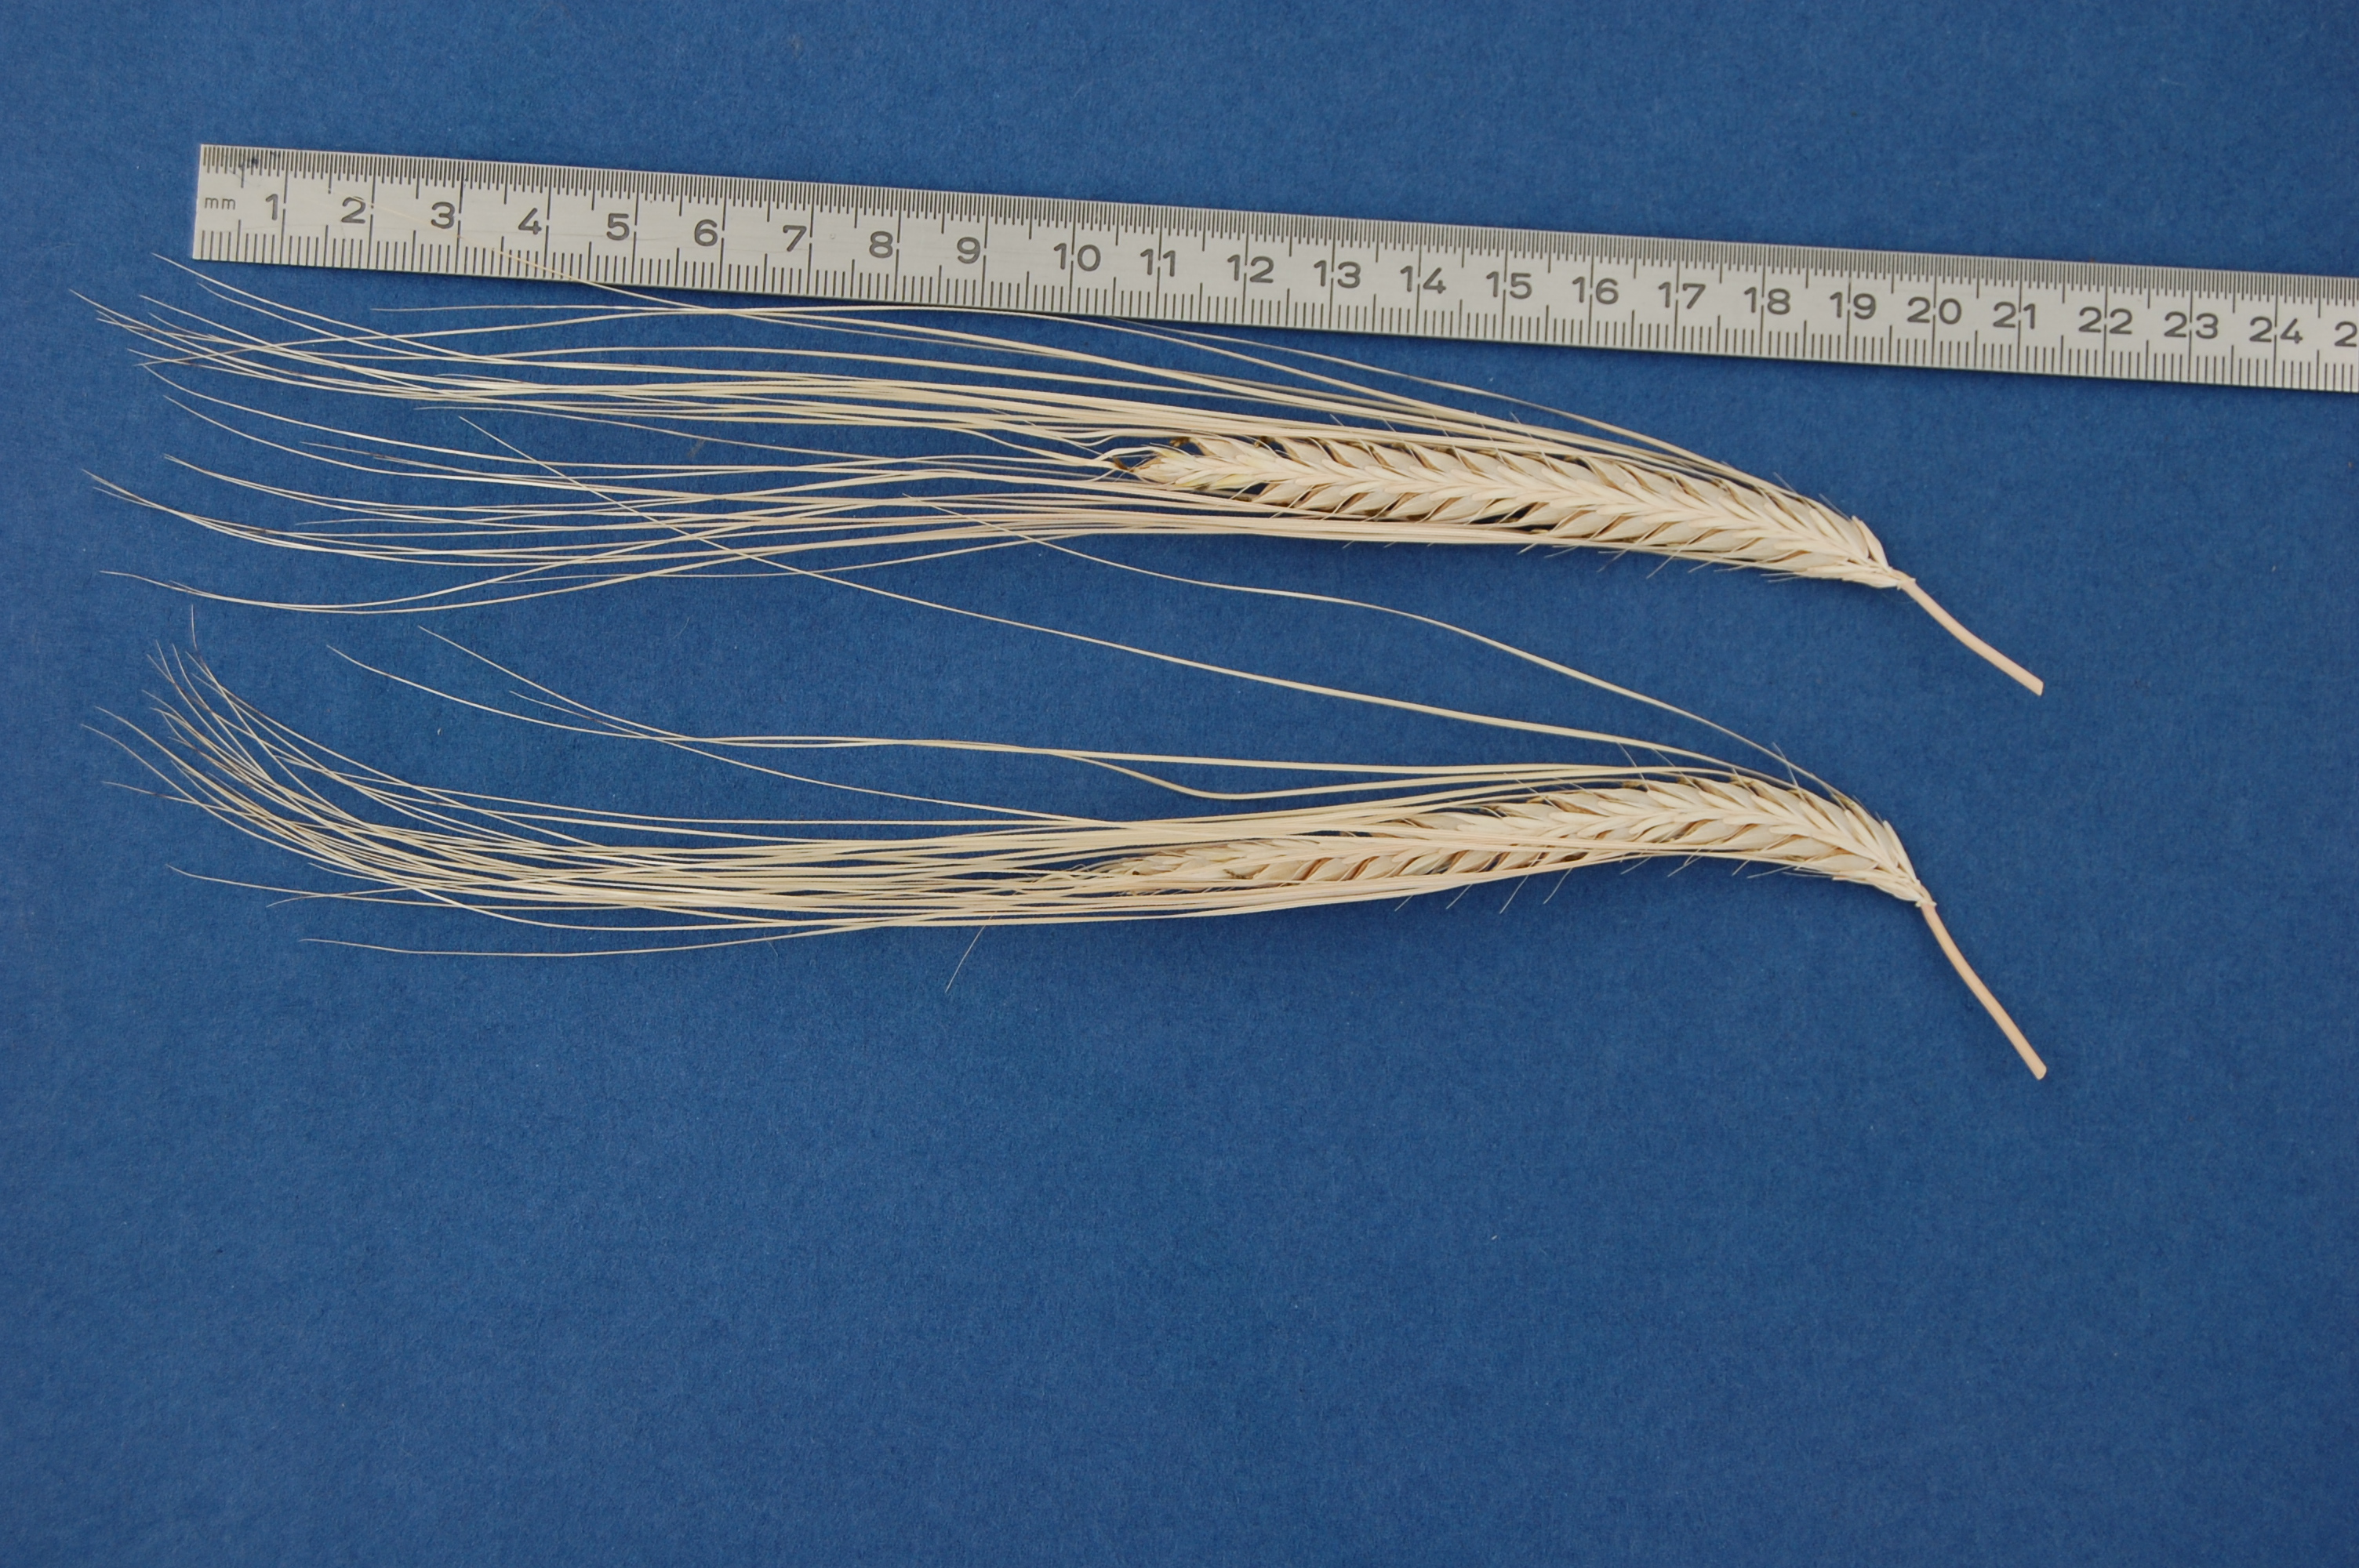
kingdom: Plantae
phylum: Tracheophyta
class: Liliopsida
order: Poales
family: Poaceae
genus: Hordeum
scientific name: Hordeum vulgare
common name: Common barley
